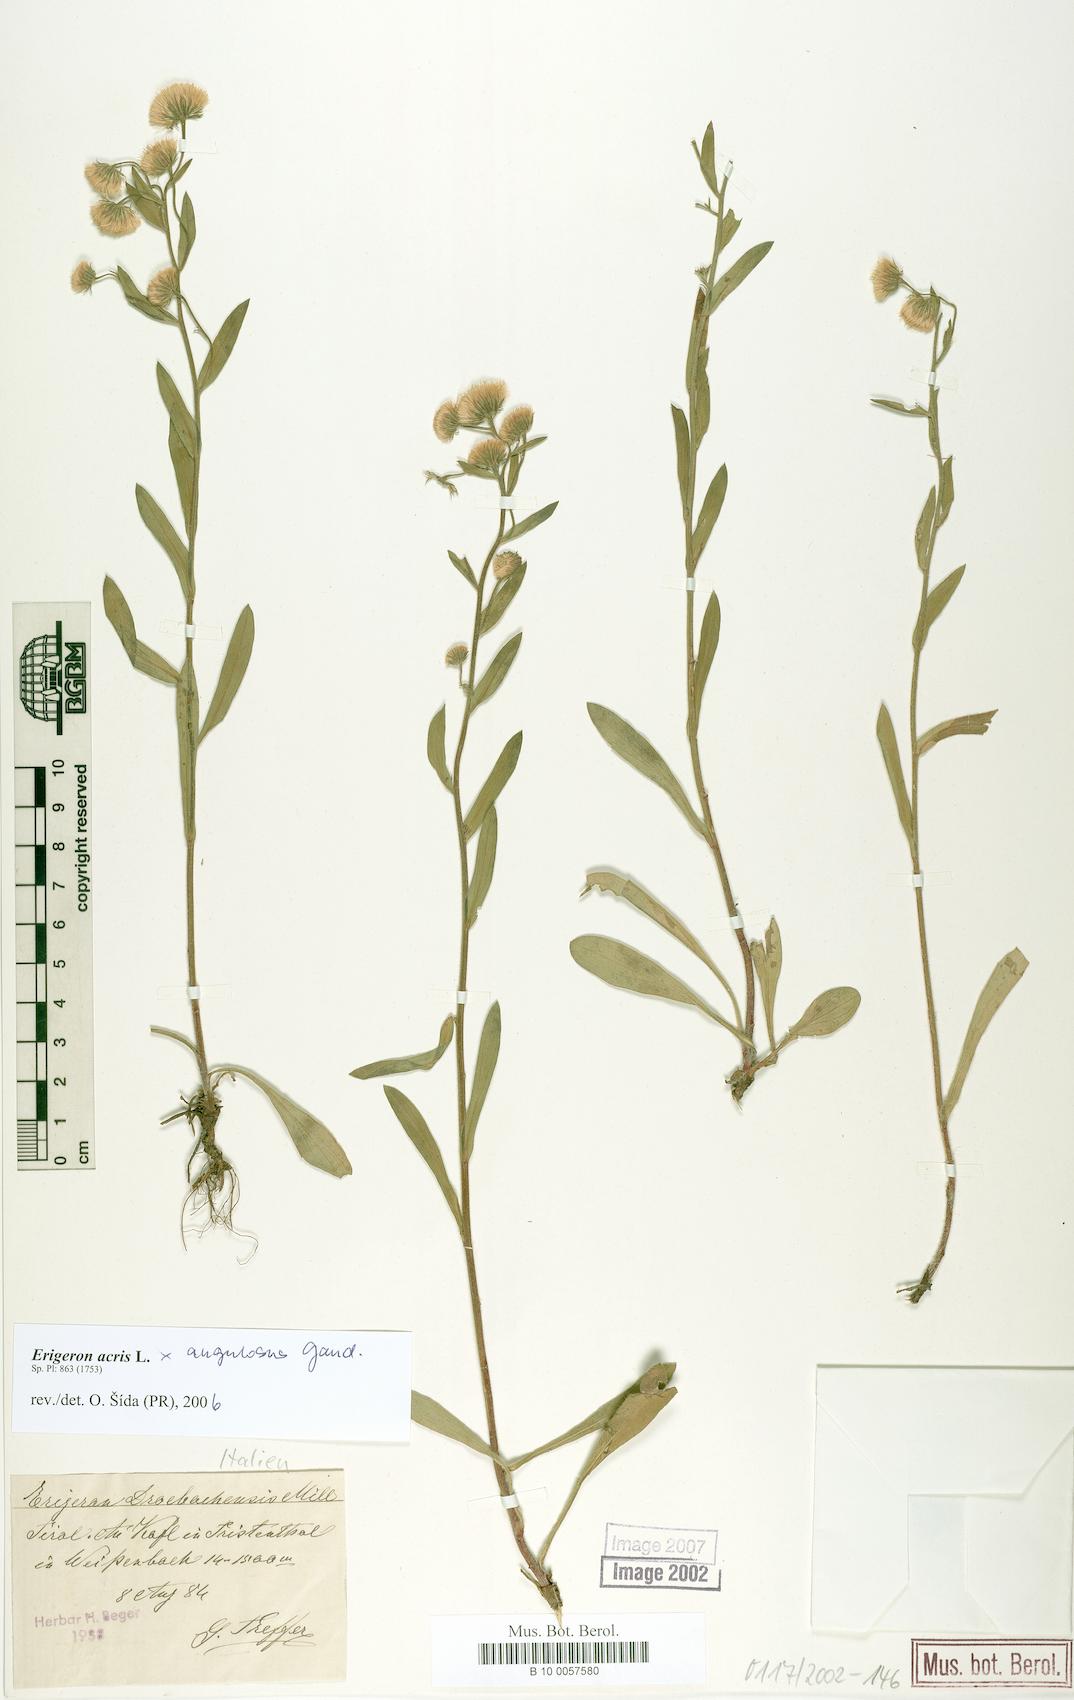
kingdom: Plantae
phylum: Tracheophyta
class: Magnoliopsida
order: Asterales
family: Asteraceae
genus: Erigeron
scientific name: Erigeron acris
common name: Blue fleabane
